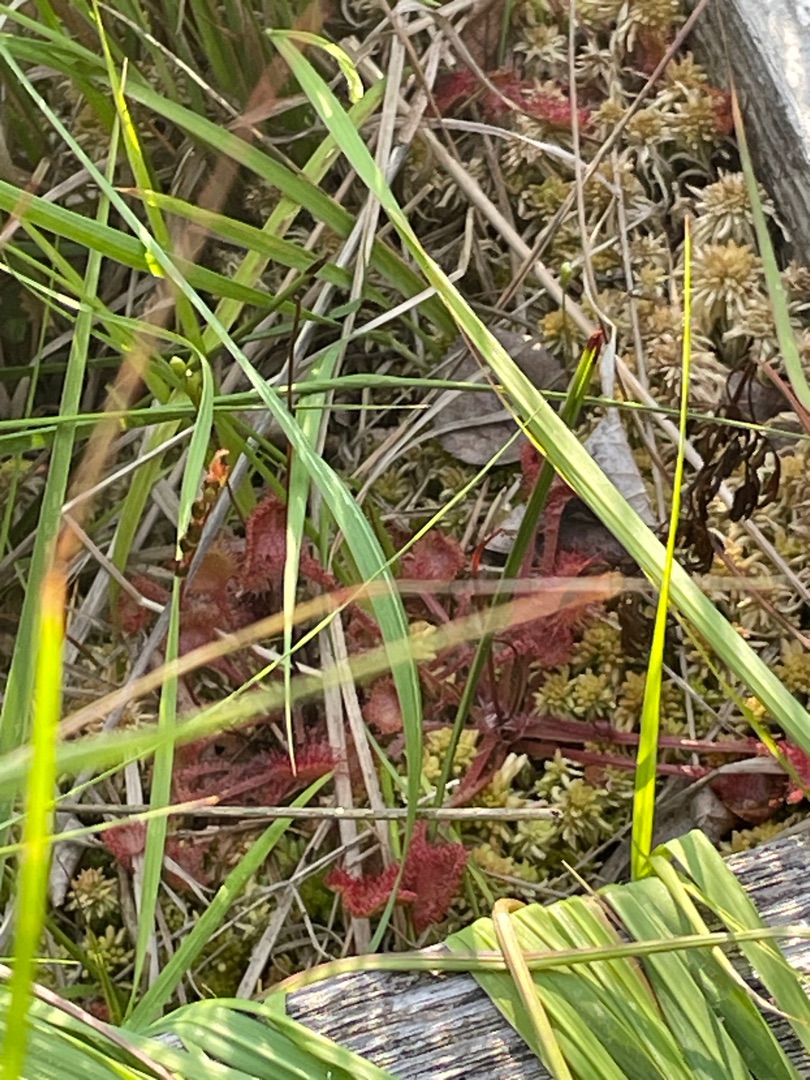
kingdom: Plantae
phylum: Tracheophyta
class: Magnoliopsida
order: Caryophyllales
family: Droseraceae
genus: Drosera
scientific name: Drosera rotundifolia
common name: Rundbladet soldug
